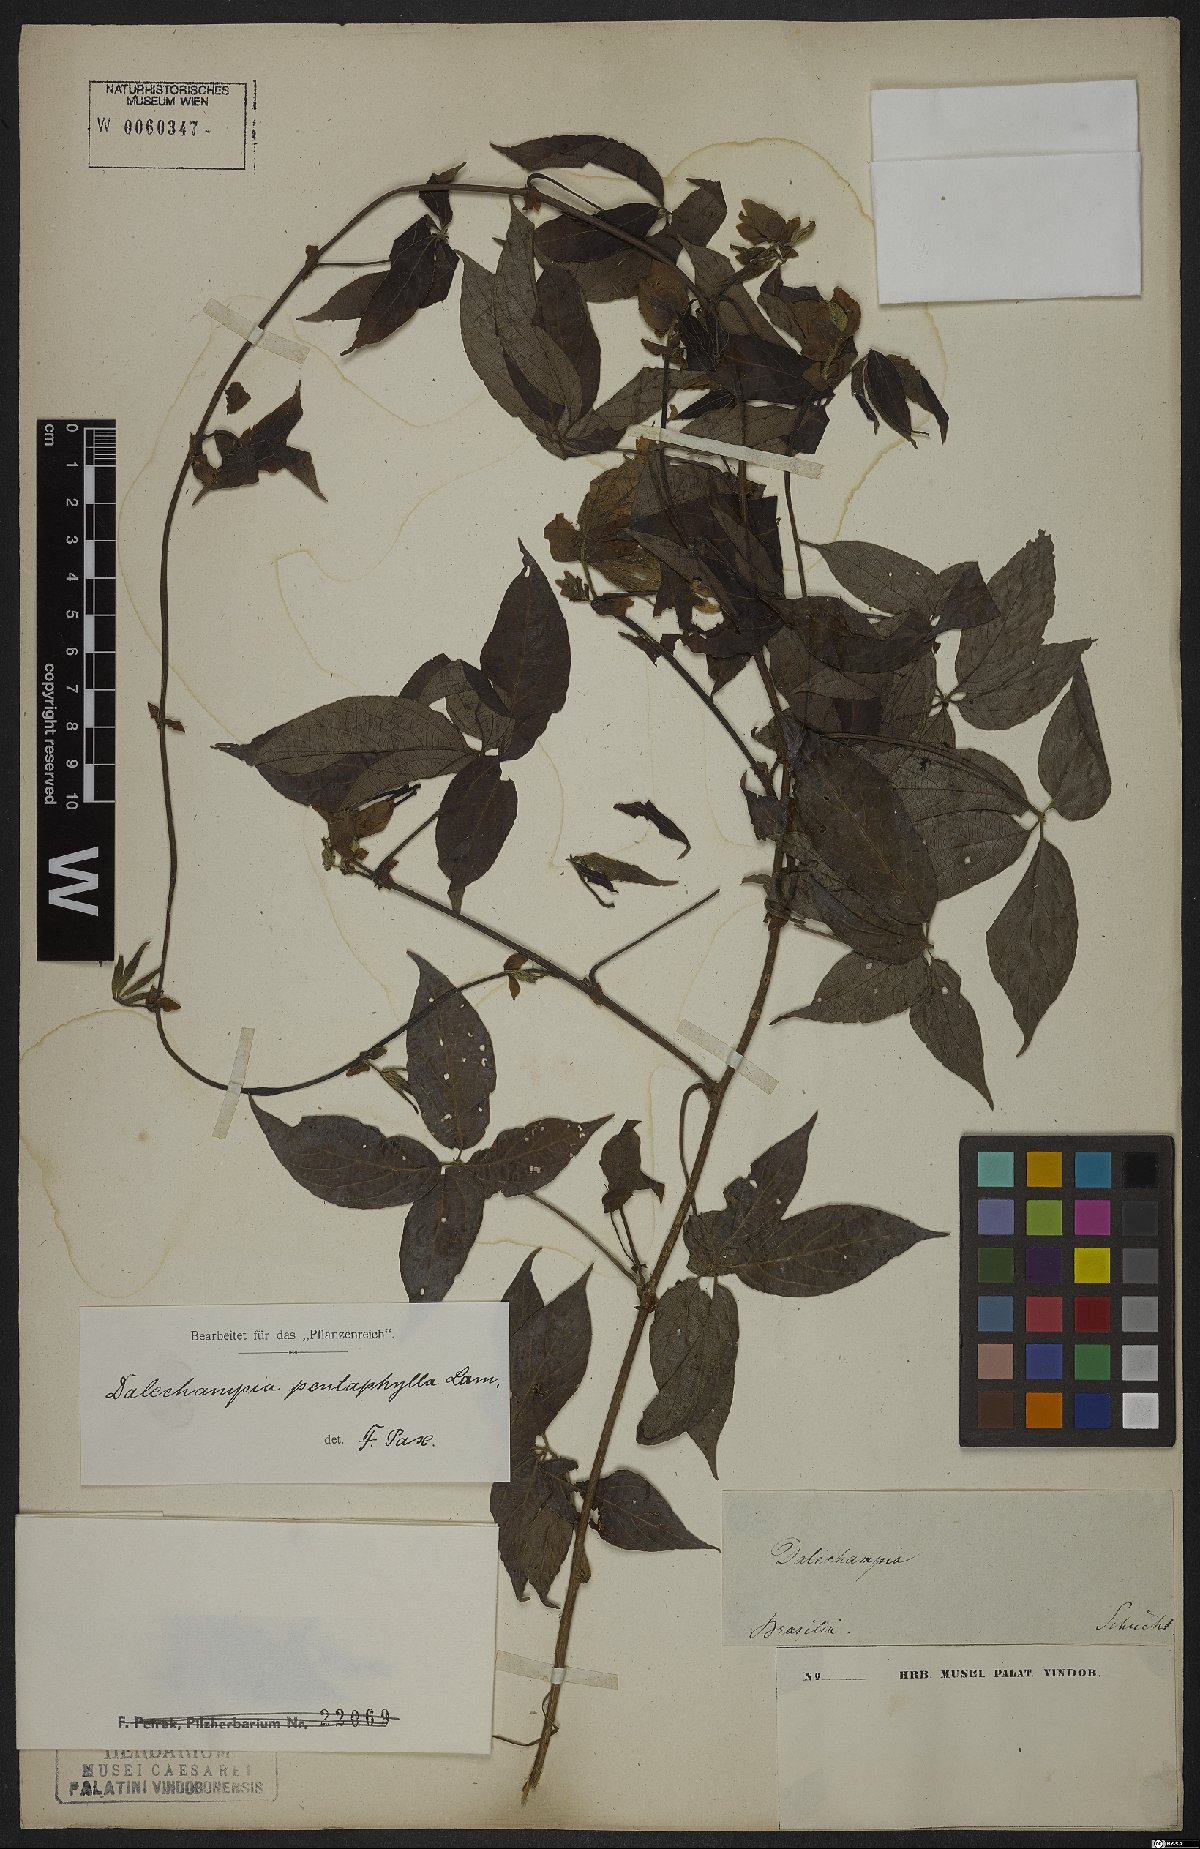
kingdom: Plantae
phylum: Tracheophyta
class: Magnoliopsida
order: Malpighiales
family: Euphorbiaceae
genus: Dalechampia
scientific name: Dalechampia pentaphylla
